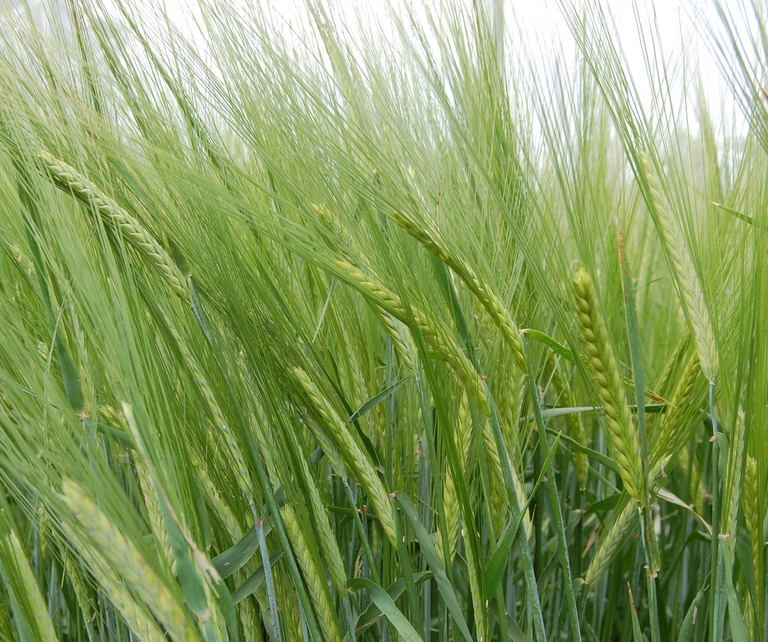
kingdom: Plantae
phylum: Tracheophyta
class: Liliopsida
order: Poales
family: Poaceae
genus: Hordeum
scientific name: Hordeum vulgare
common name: Common barley
